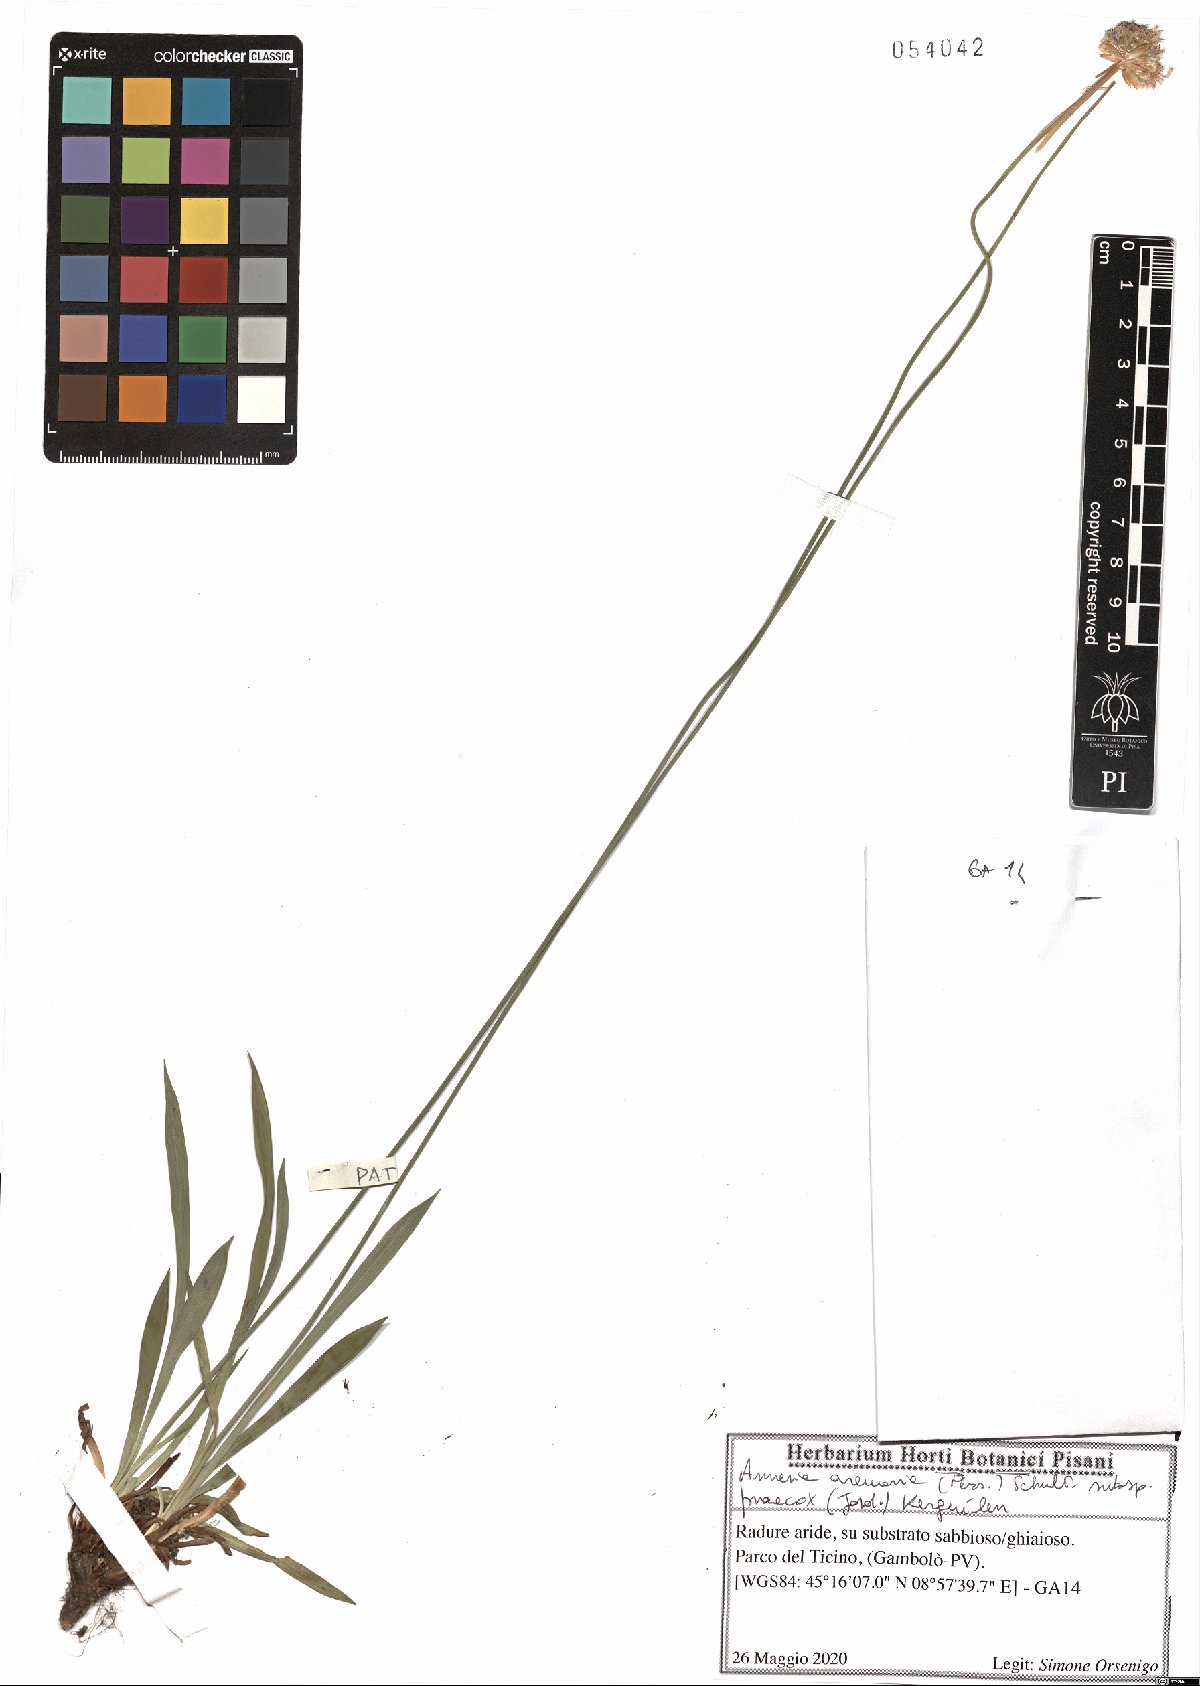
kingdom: Plantae
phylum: Tracheophyta
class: Magnoliopsida
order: Caryophyllales
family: Plumbaginaceae
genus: Armeria
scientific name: Armeria arenaria
